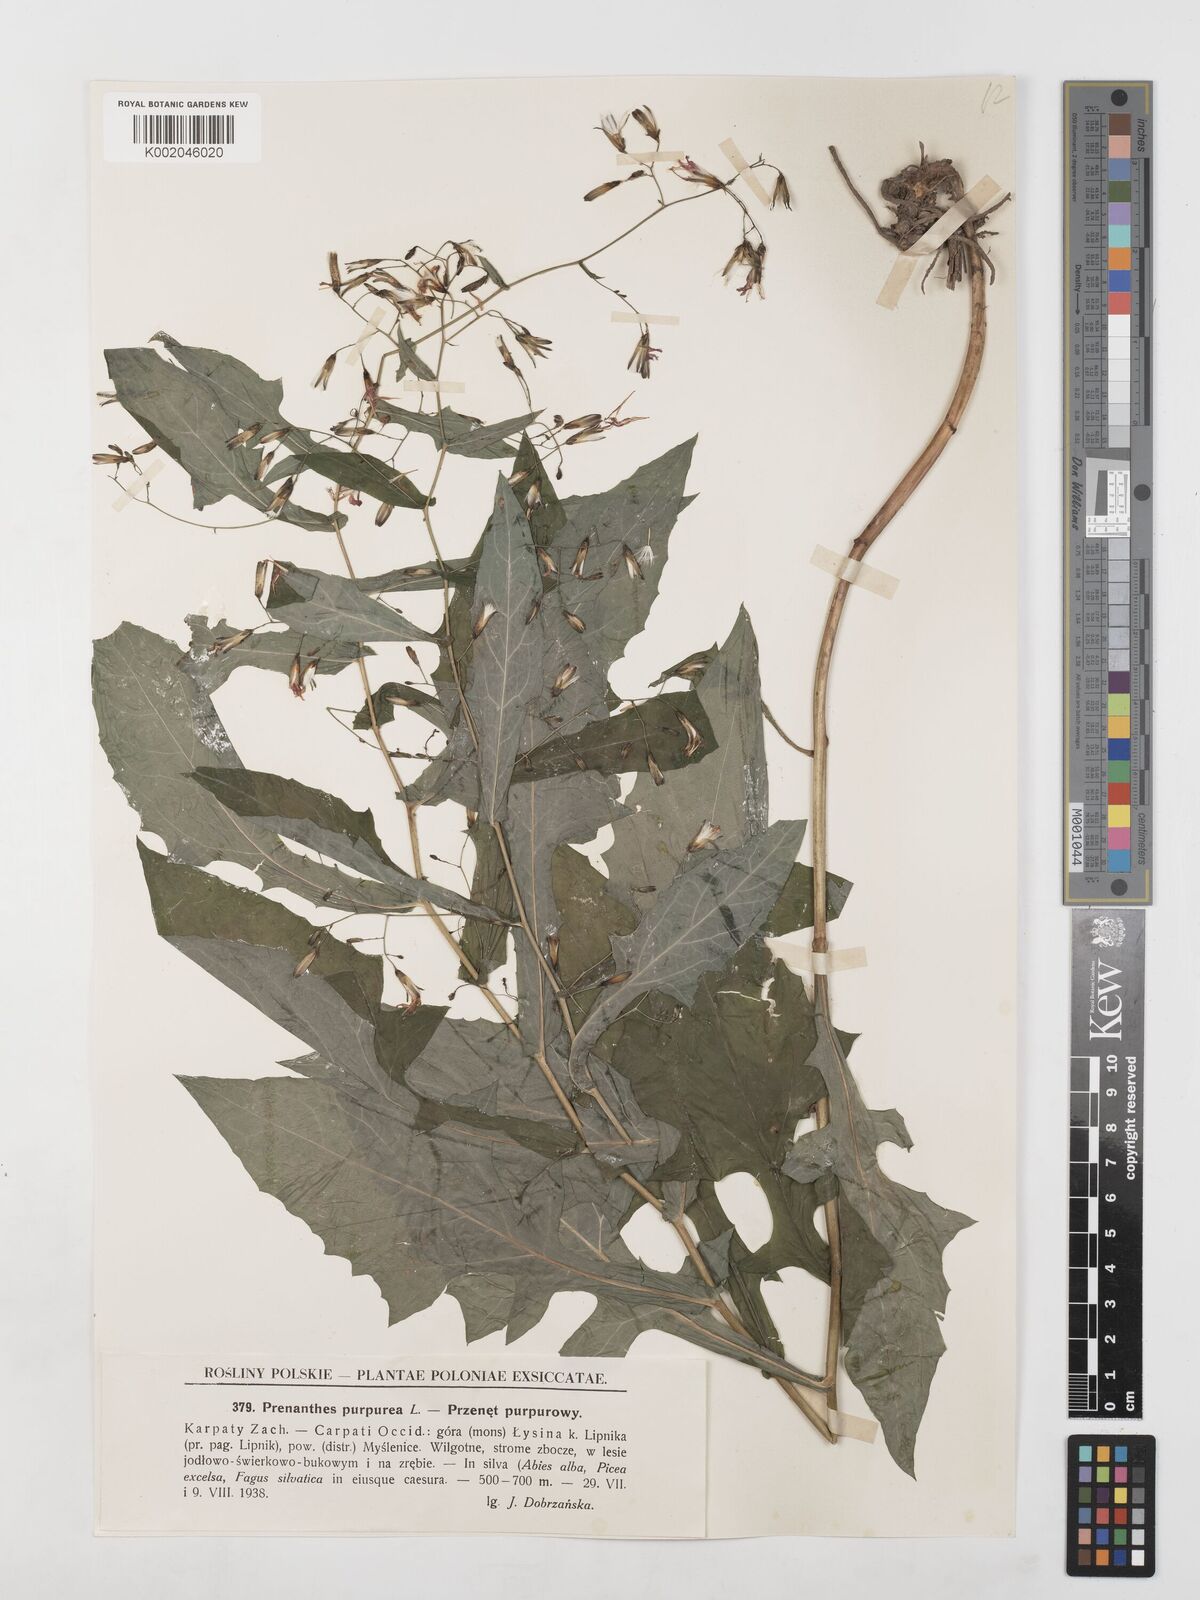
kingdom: Plantae
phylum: Tracheophyta
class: Magnoliopsida
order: Asterales
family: Asteraceae
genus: Prenanthes
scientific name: Prenanthes purpurea
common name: Purple lettuce
